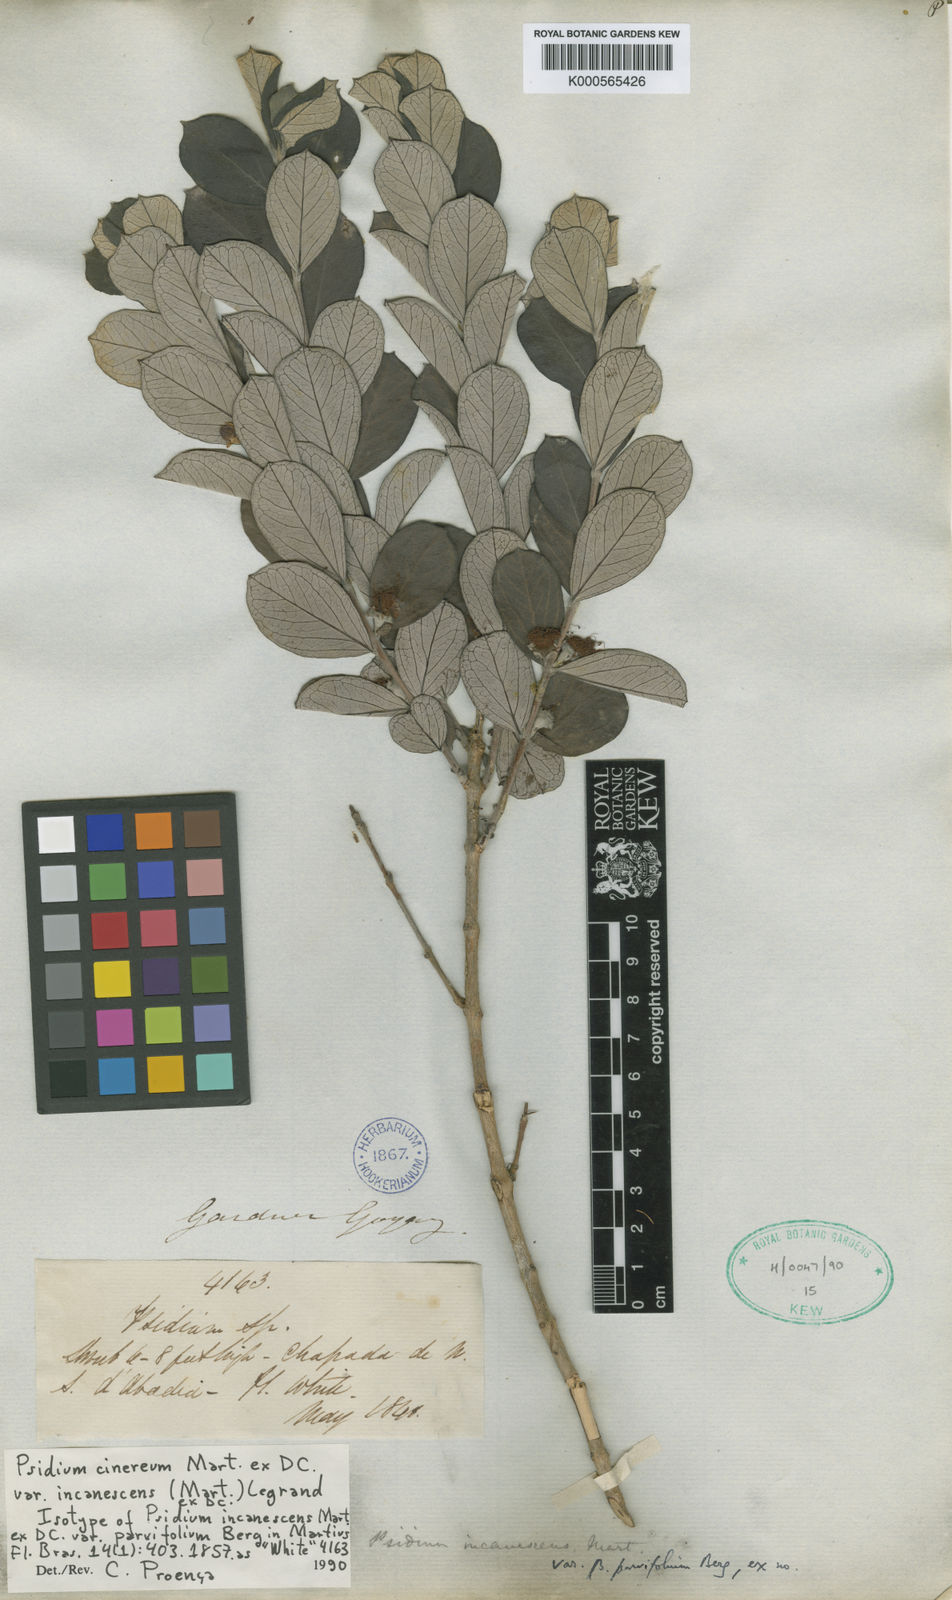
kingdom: Plantae
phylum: Tracheophyta
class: Magnoliopsida
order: Myrtales
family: Myrtaceae
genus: Psidium
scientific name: Psidium grandifolium
